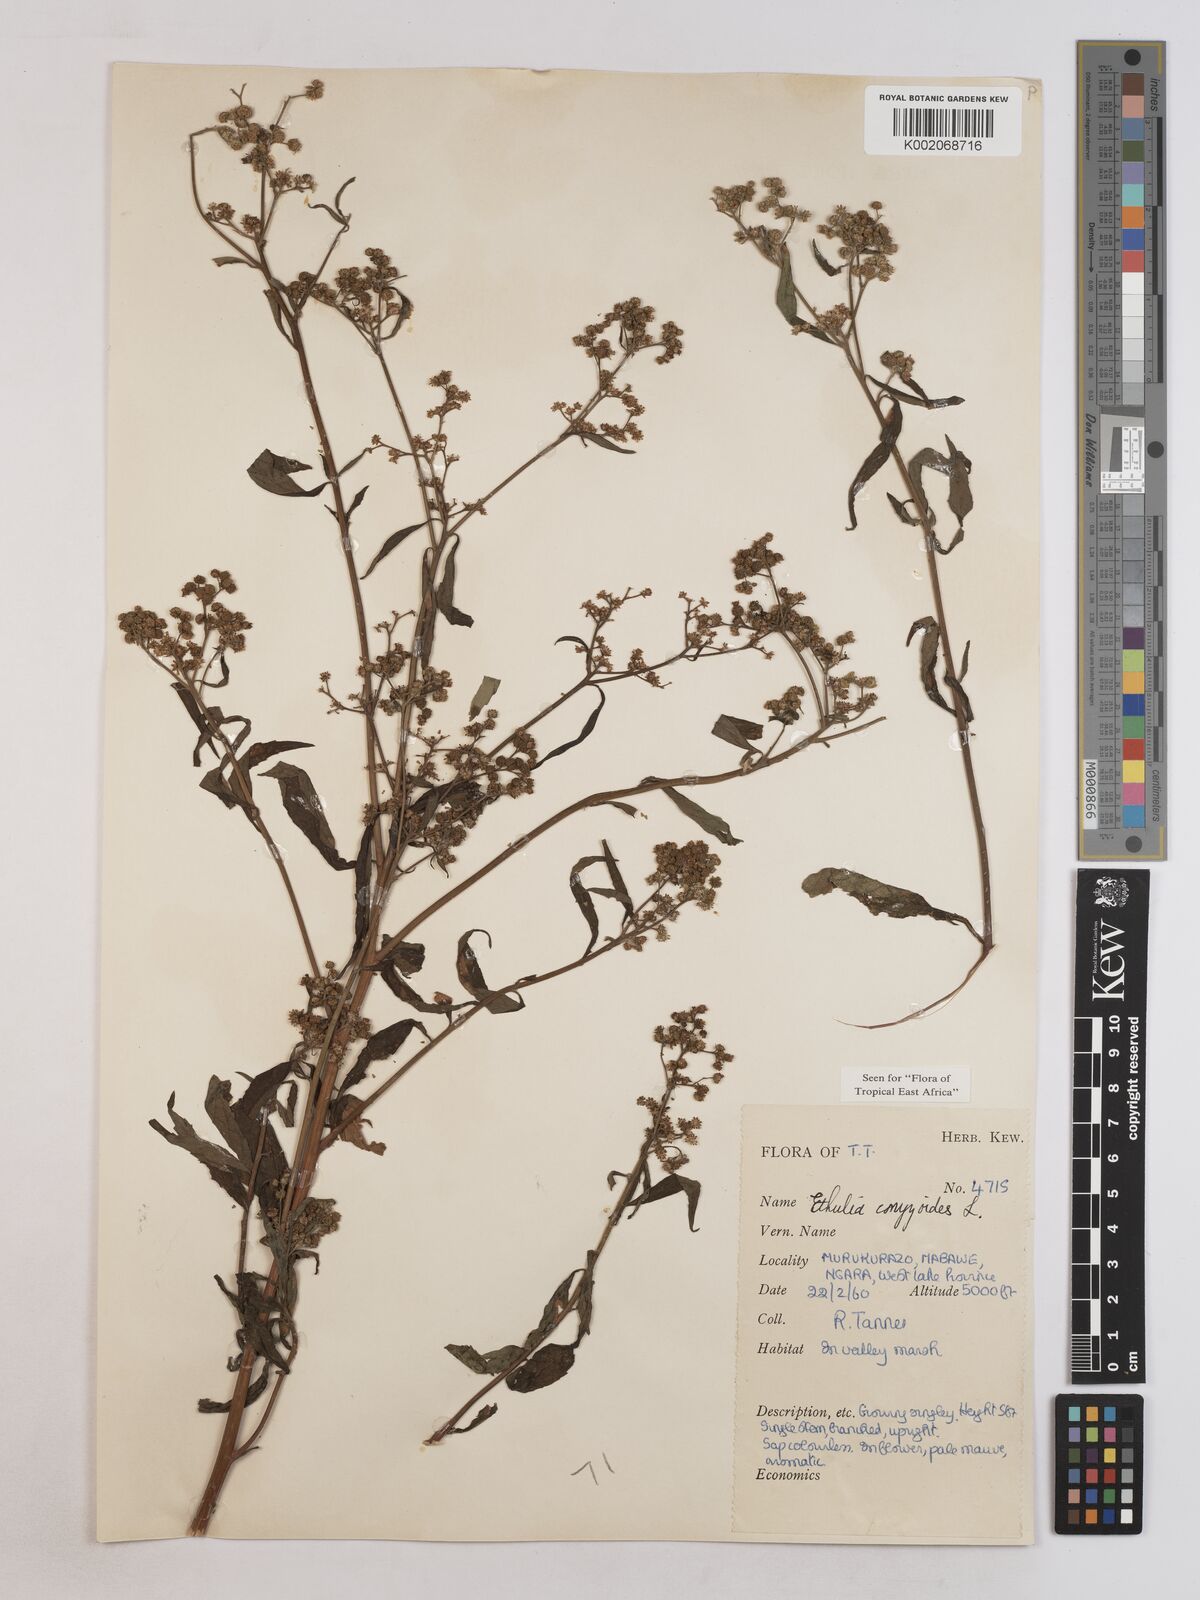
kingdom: Plantae
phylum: Tracheophyta
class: Magnoliopsida
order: Asterales
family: Asteraceae
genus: Ethulia
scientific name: Ethulia
